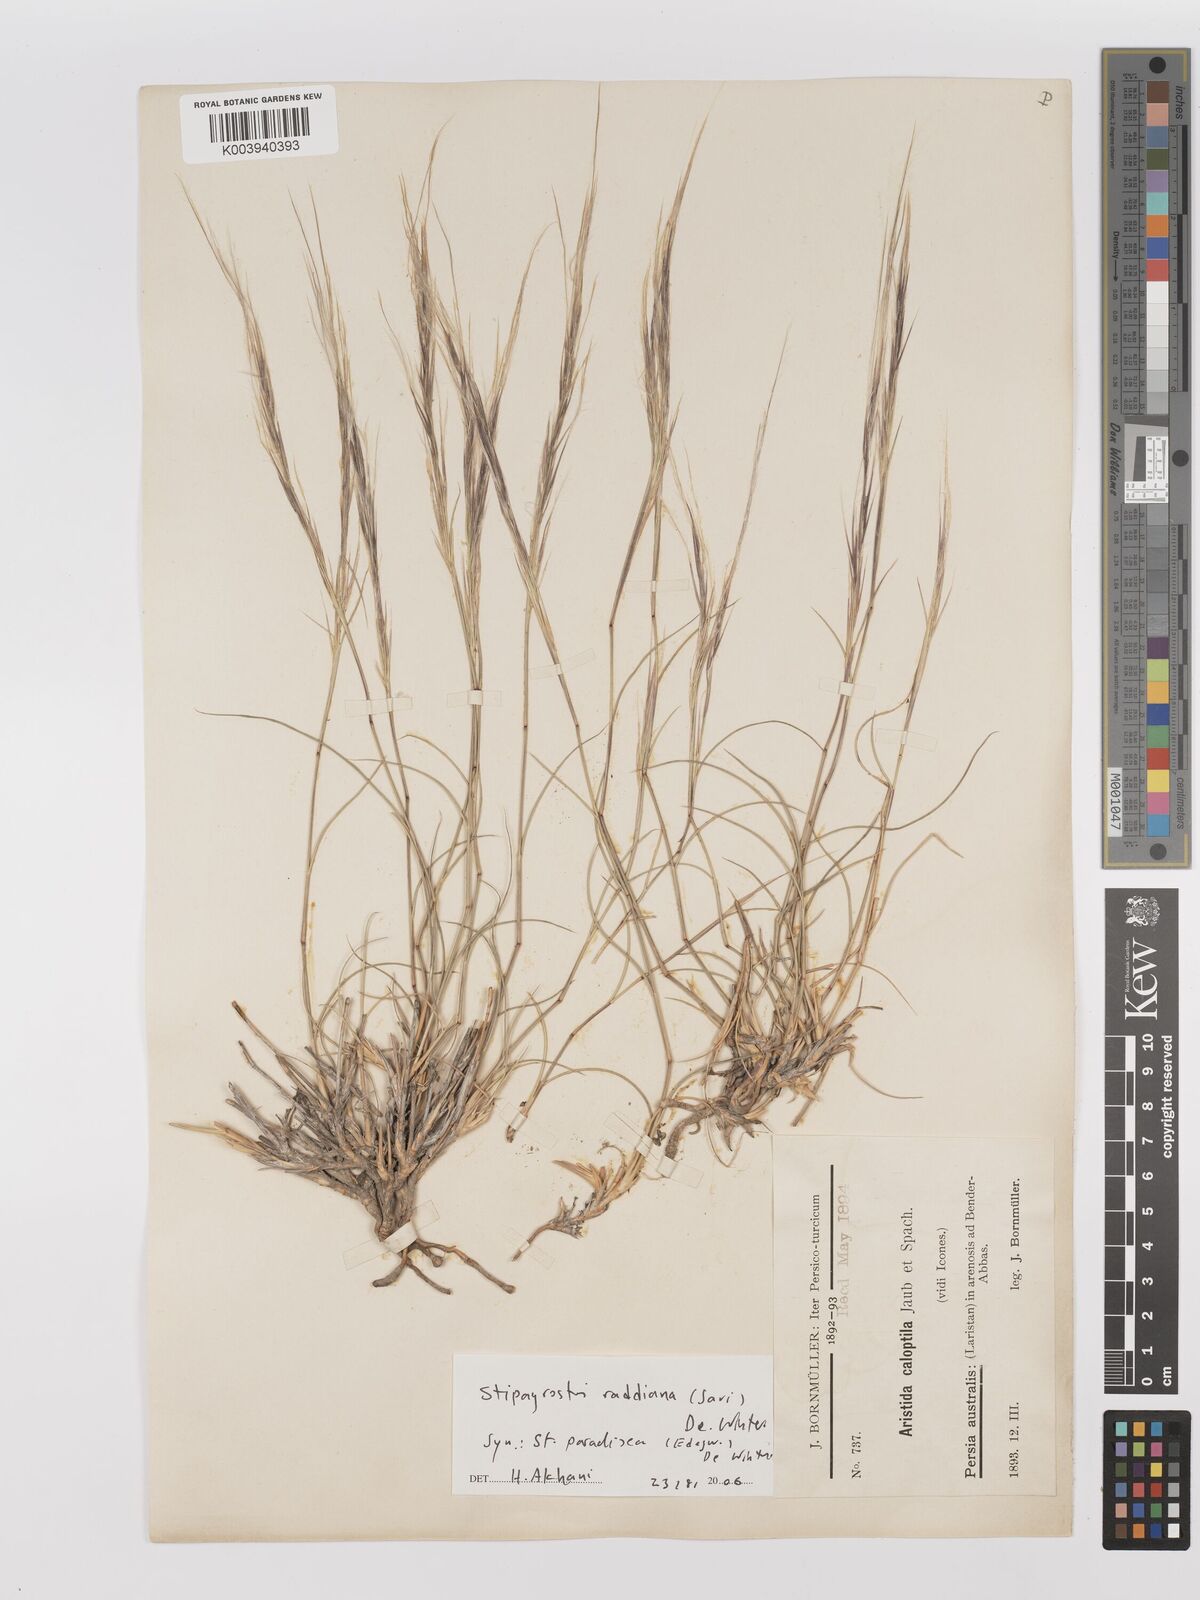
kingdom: Plantae
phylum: Tracheophyta
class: Liliopsida
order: Poales
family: Poaceae
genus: Stipagrostis
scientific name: Stipagrostis paradisea
